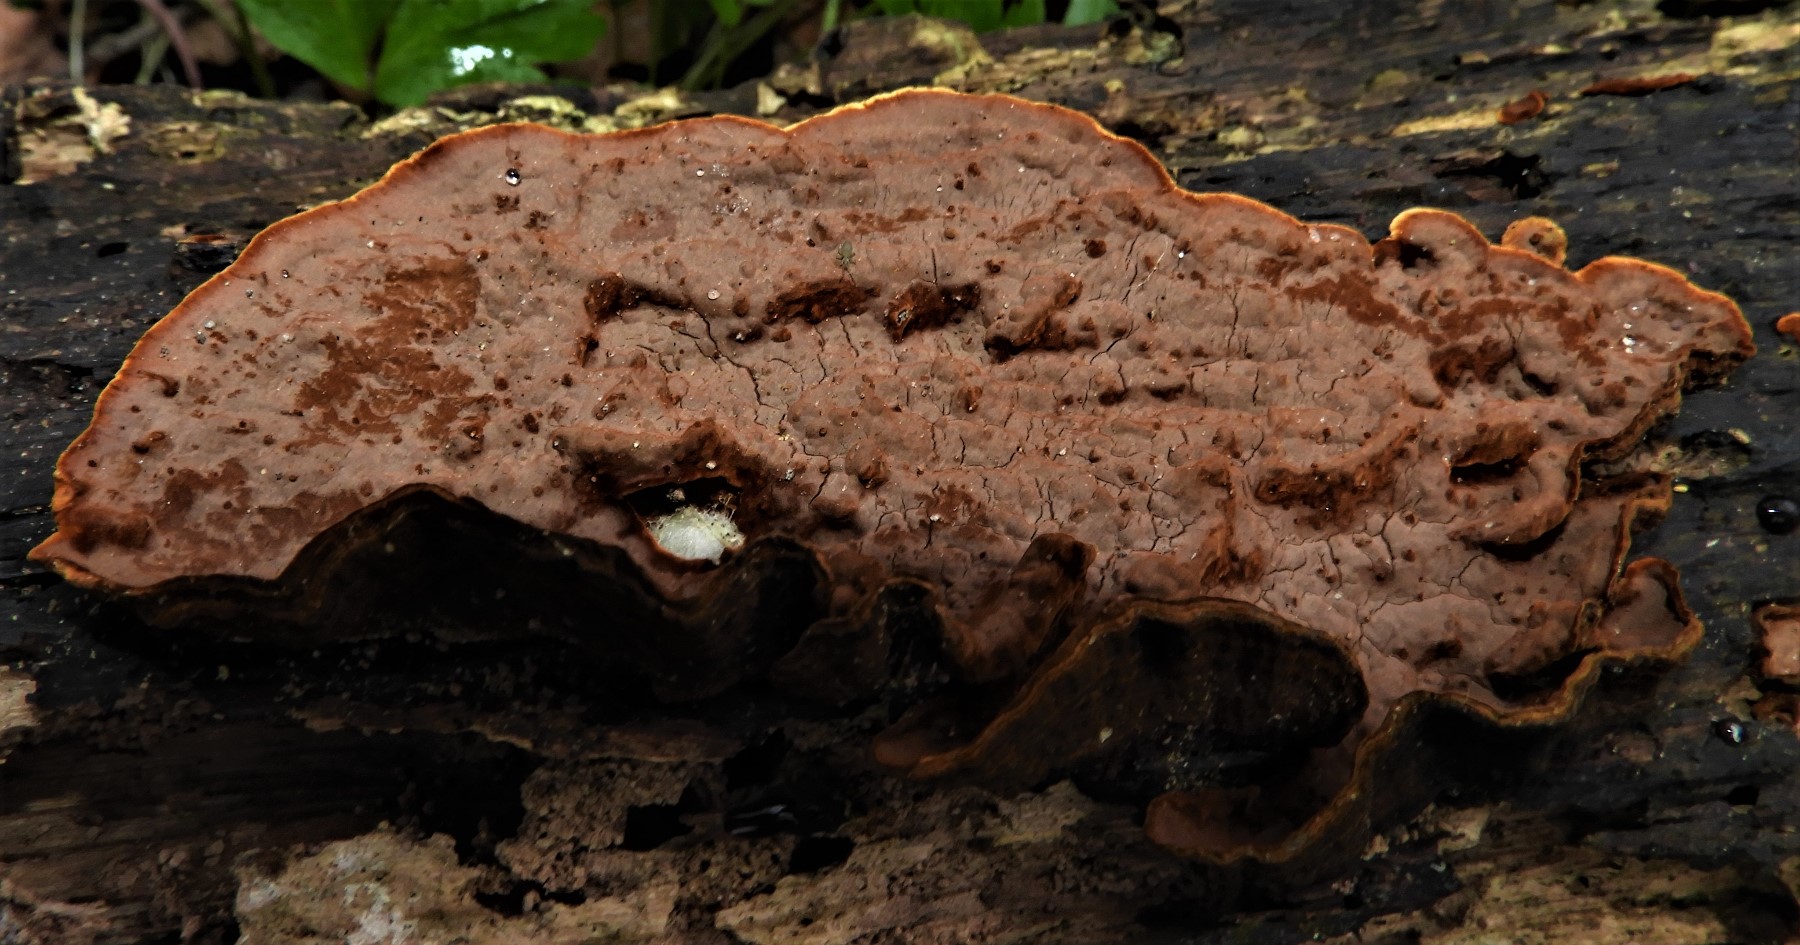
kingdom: Fungi
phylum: Basidiomycota
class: Agaricomycetes
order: Hymenochaetales
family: Hymenochaetaceae
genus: Hymenochaete
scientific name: Hymenochaete rubiginosa
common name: stiv ruslædersvamp
